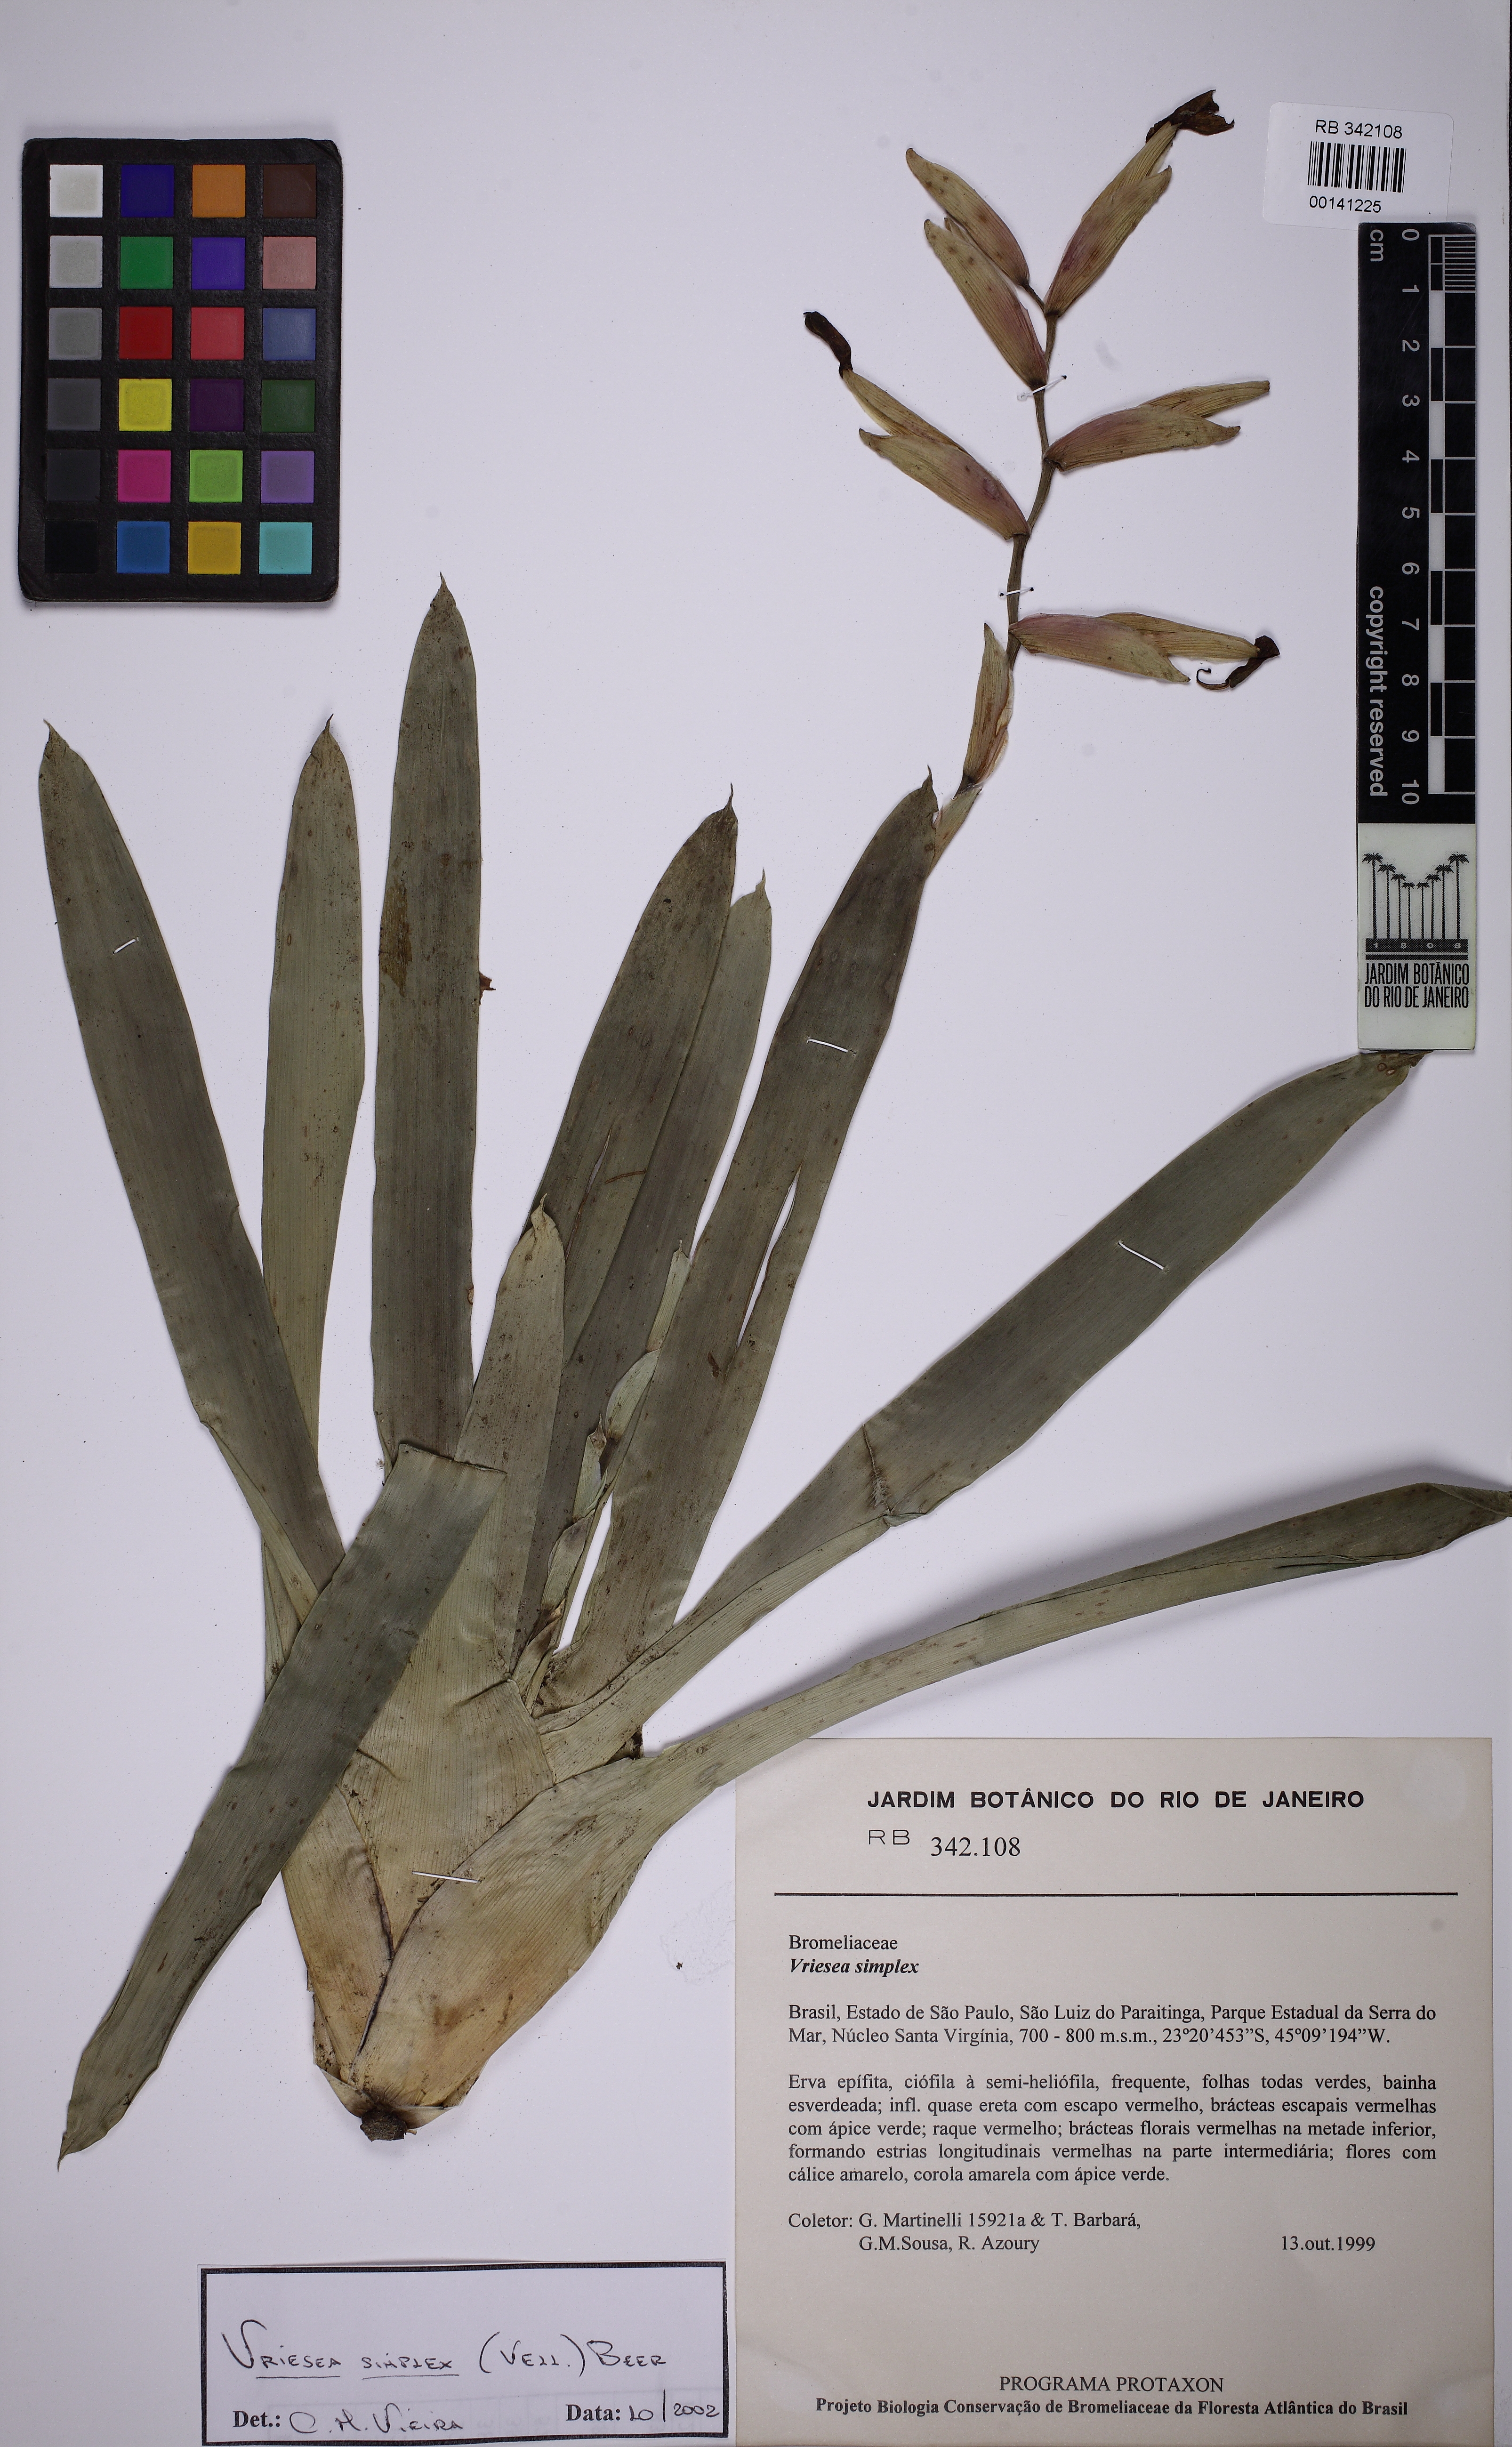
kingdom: Plantae
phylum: Tracheophyta
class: Liliopsida
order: Poales
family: Bromeliaceae
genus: Vriesea
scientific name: Vriesea simplex
